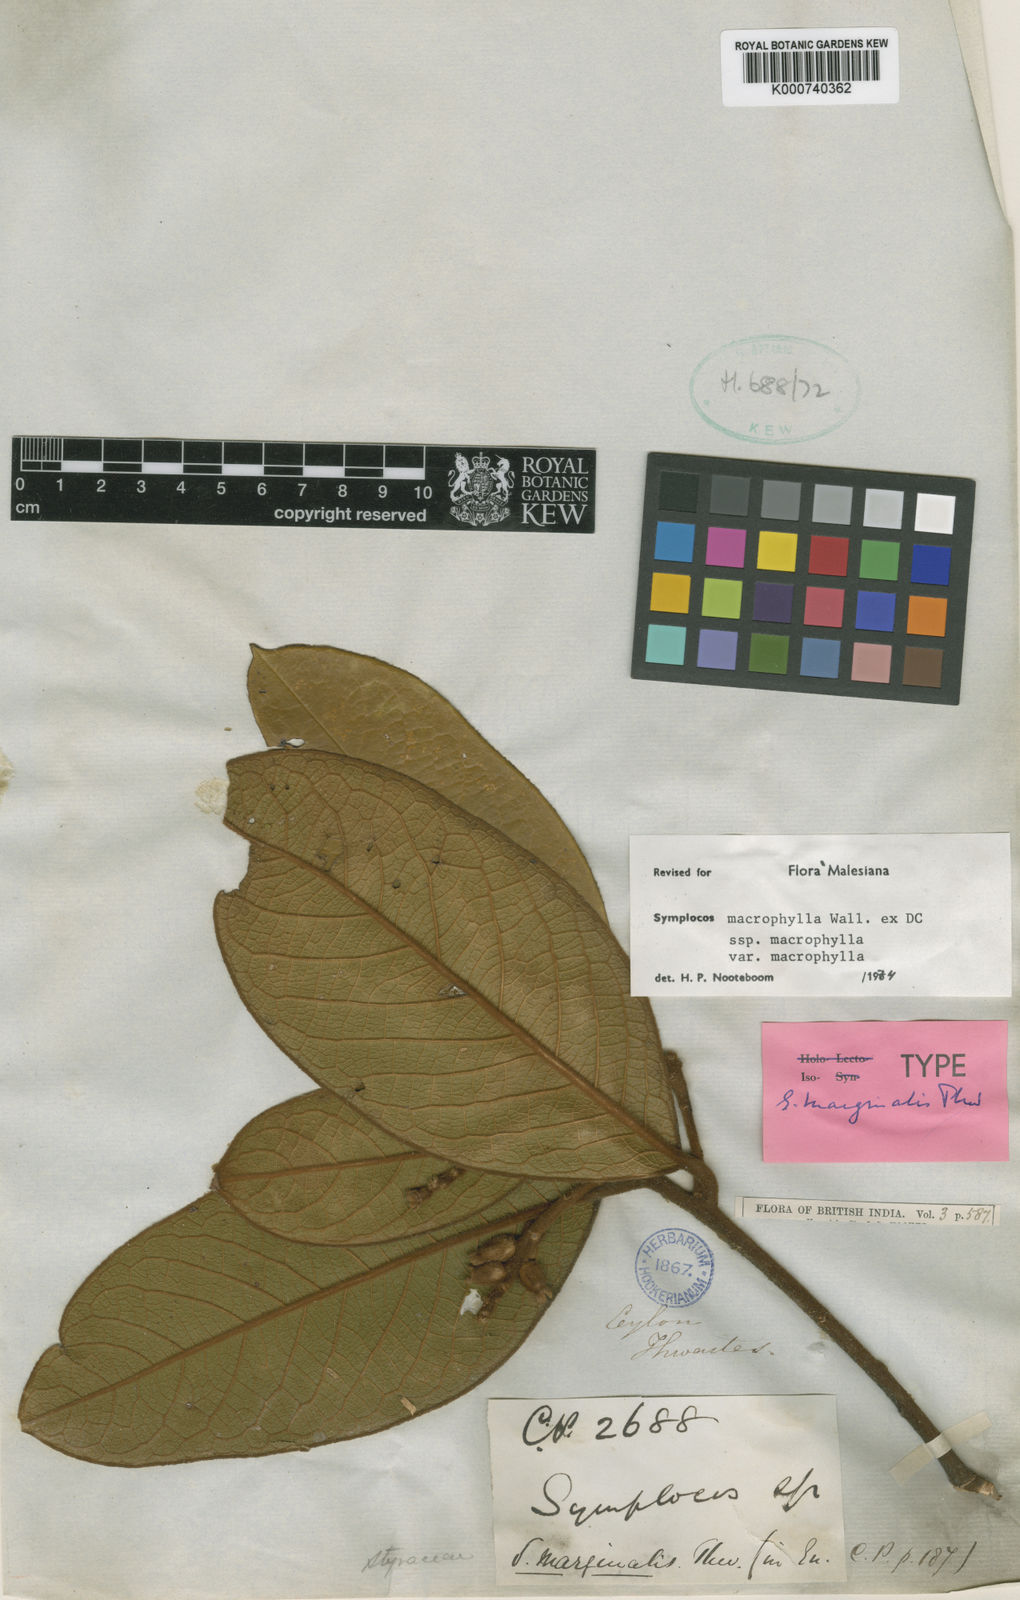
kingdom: Plantae
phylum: Tracheophyta
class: Magnoliopsida
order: Ericales
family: Symplocaceae
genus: Symplocos
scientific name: Symplocos
